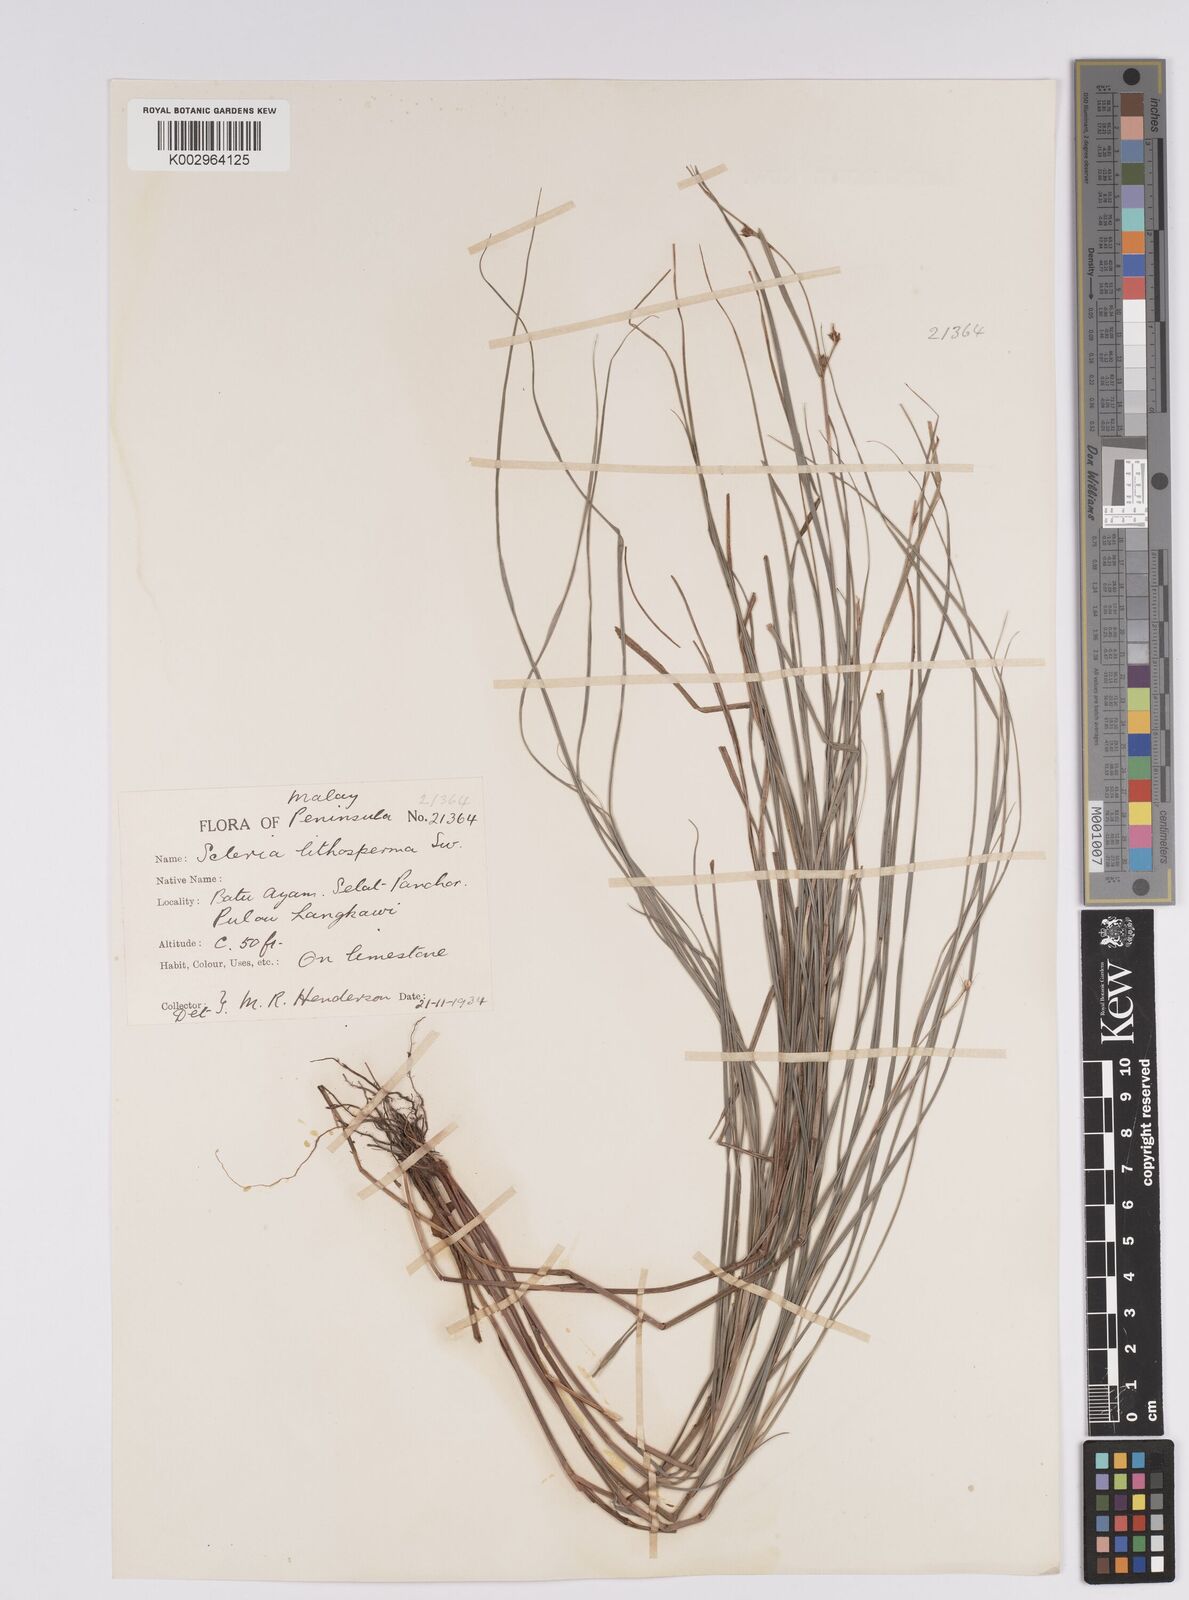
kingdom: Plantae
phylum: Tracheophyta
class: Liliopsida
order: Poales
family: Cyperaceae
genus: Scleria
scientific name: Scleria lithosperma
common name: Florida keys nut-rush
